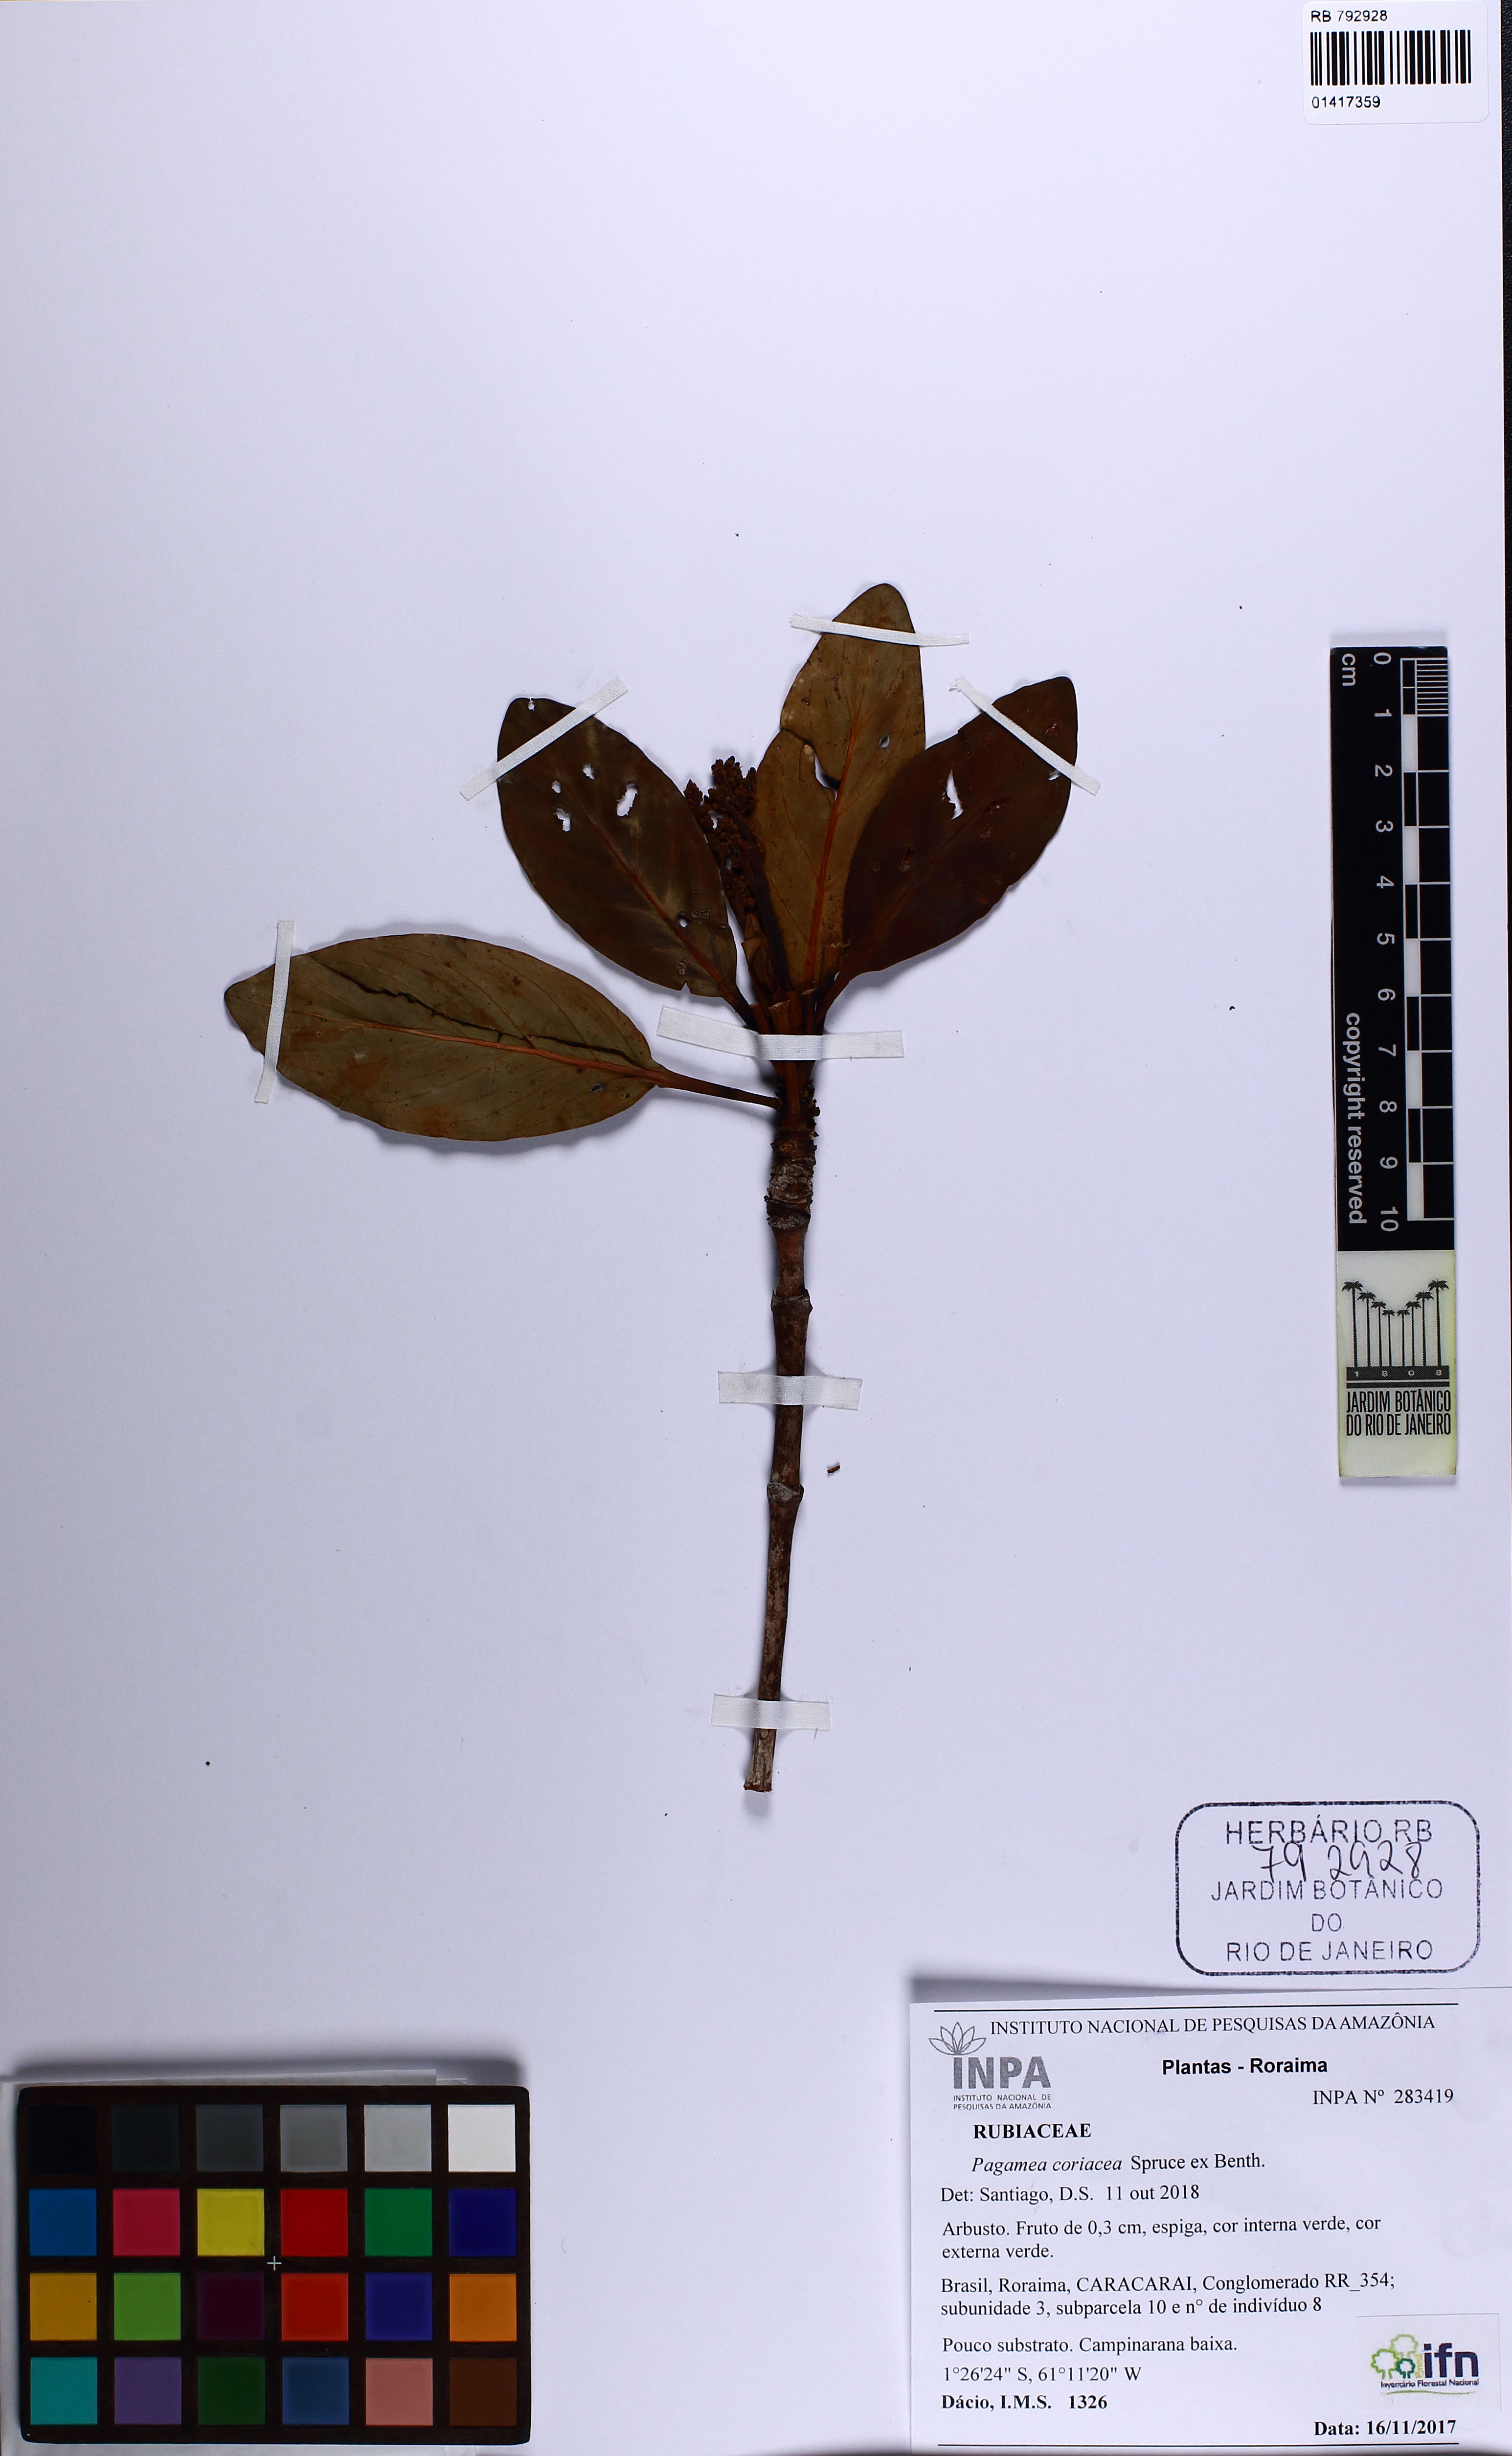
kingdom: Plantae
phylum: Tracheophyta
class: Magnoliopsida
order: Gentianales
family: Rubiaceae
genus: Pagamea
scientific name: Pagamea coriacea
